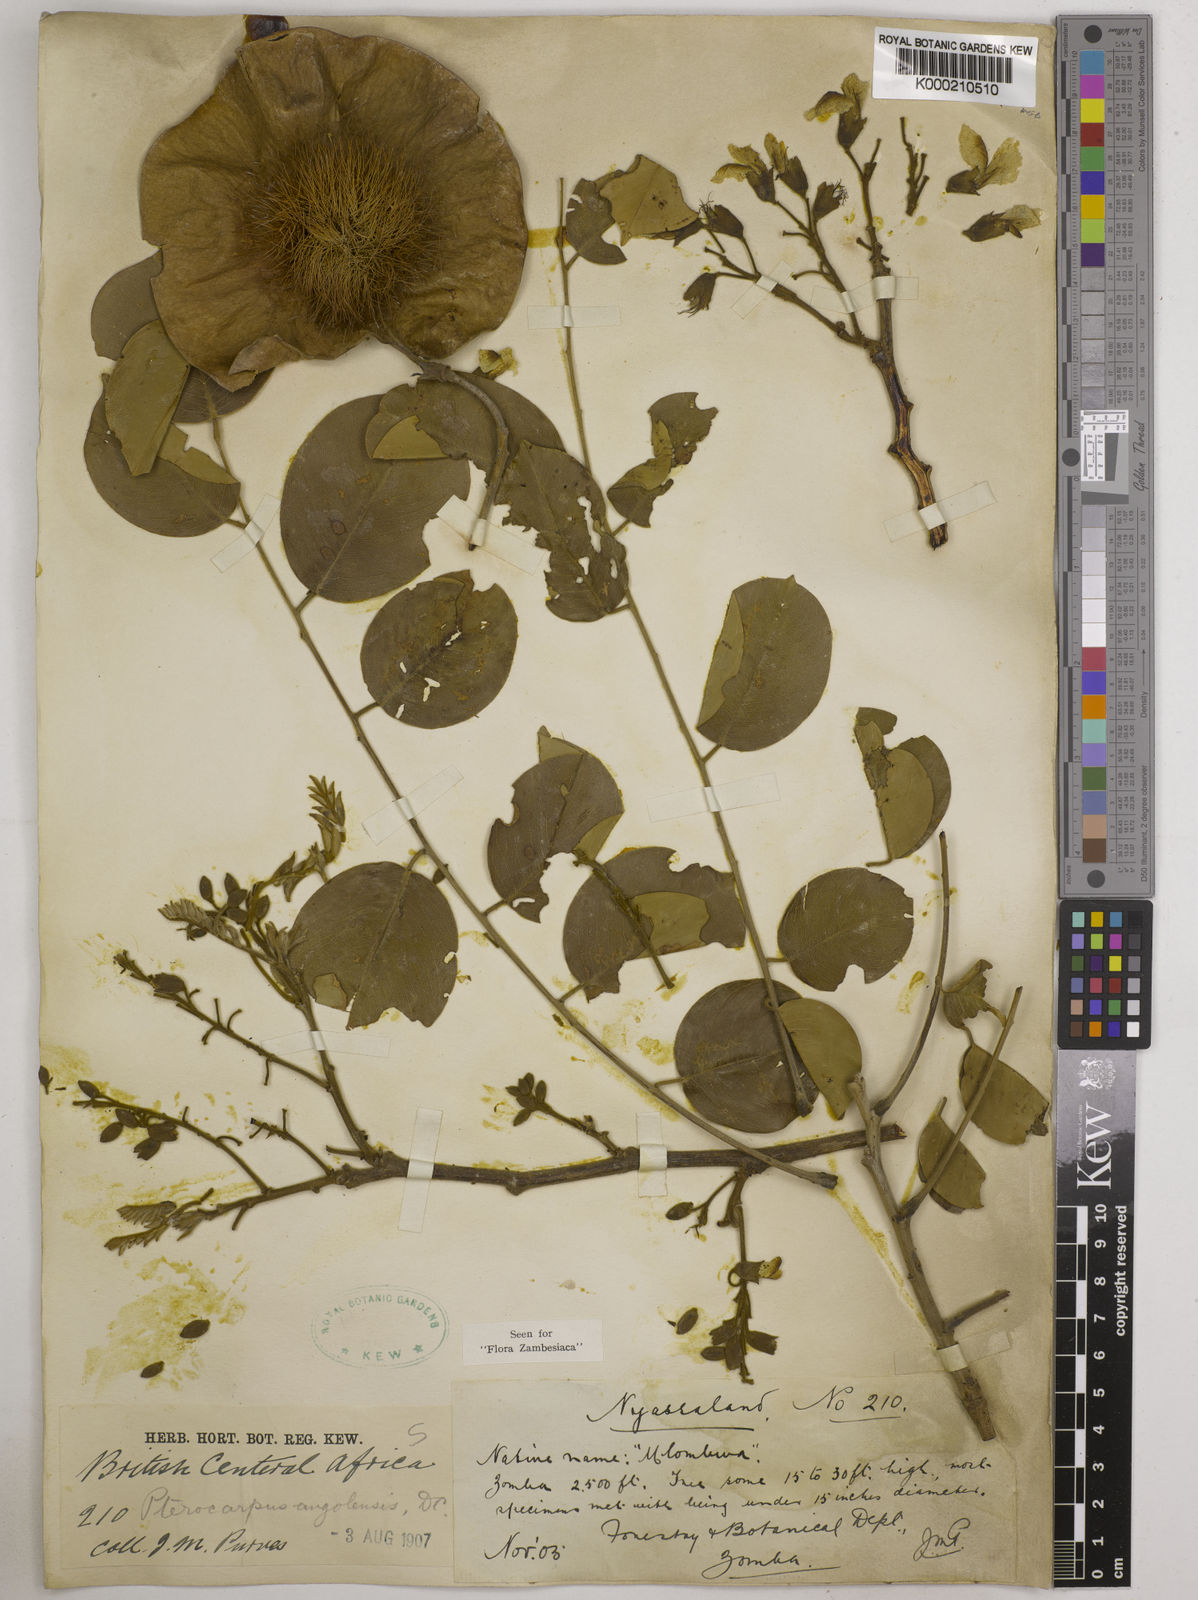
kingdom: Plantae
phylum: Tracheophyta
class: Magnoliopsida
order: Fabales
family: Fabaceae
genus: Pterocarpus
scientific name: Pterocarpus angolensis
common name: Bloodwood tree
